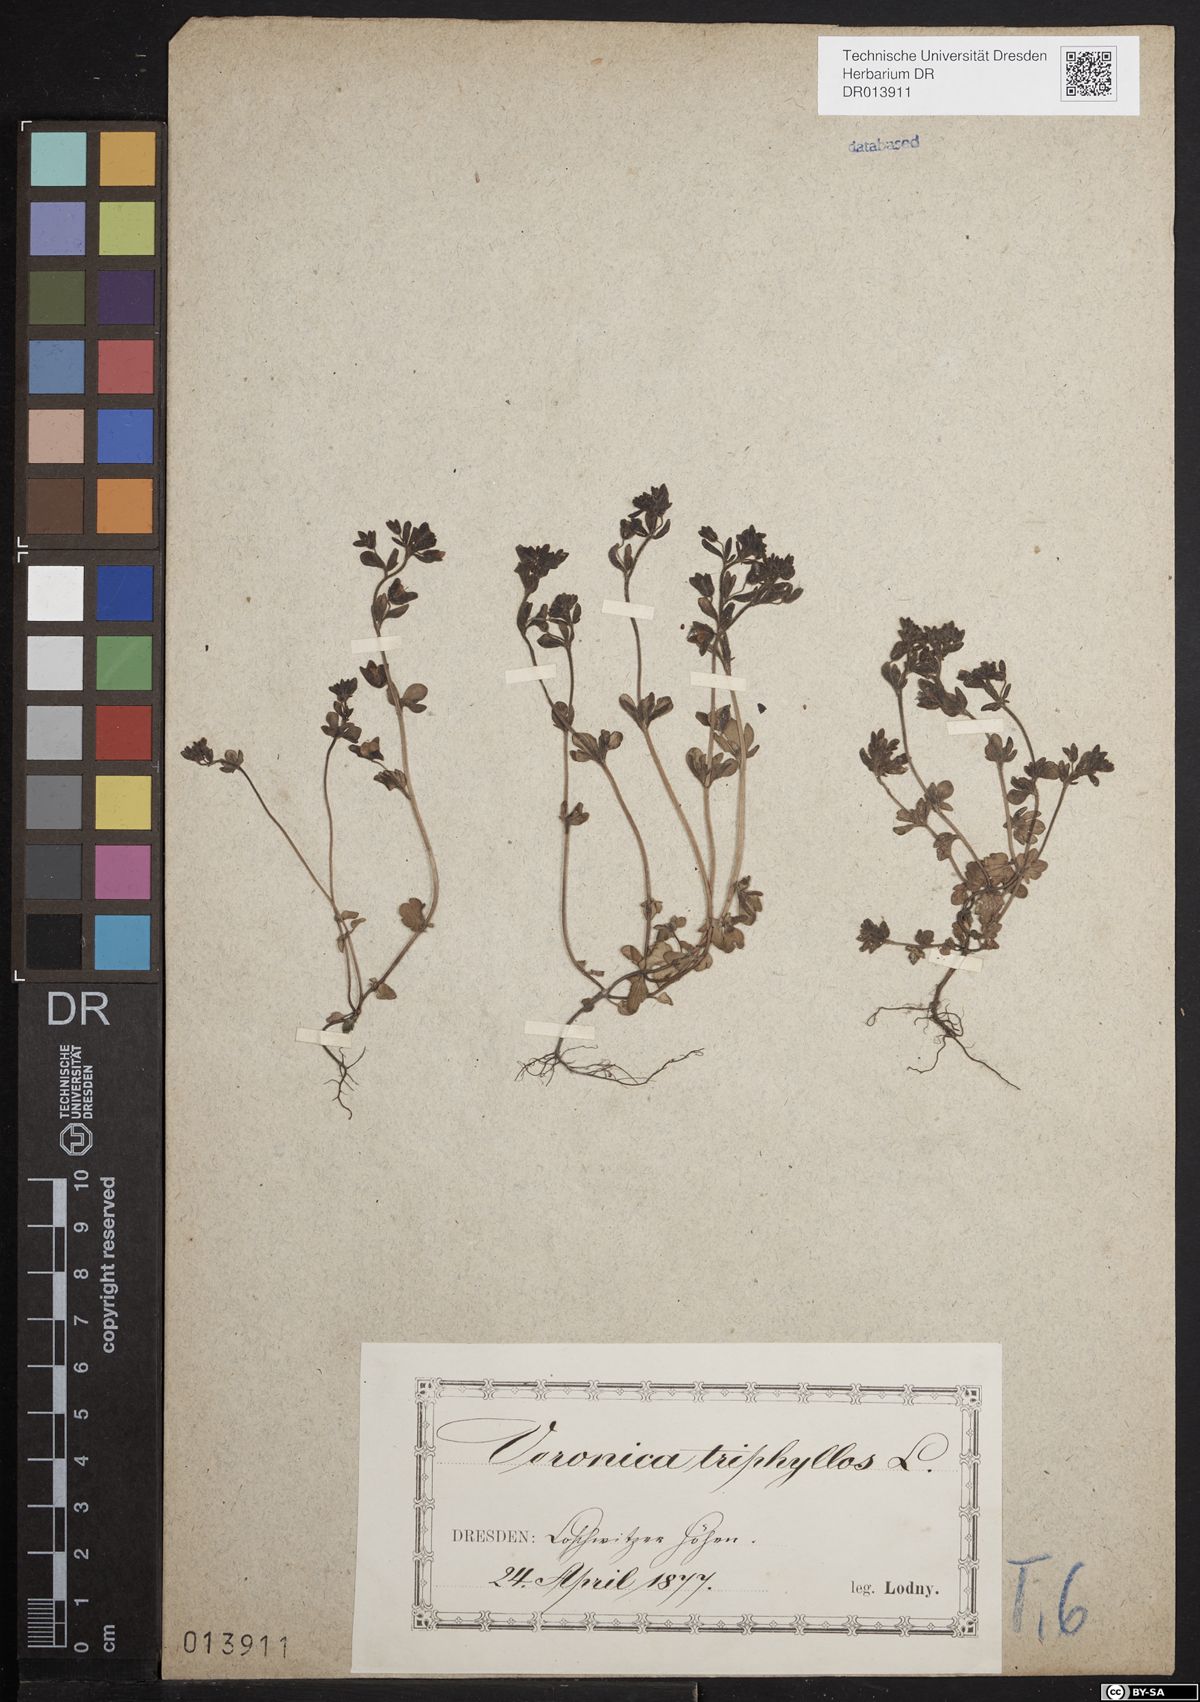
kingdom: Plantae
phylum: Tracheophyta
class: Magnoliopsida
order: Lamiales
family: Plantaginaceae
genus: Veronica
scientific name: Veronica triphyllos
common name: Fingered speedwell
